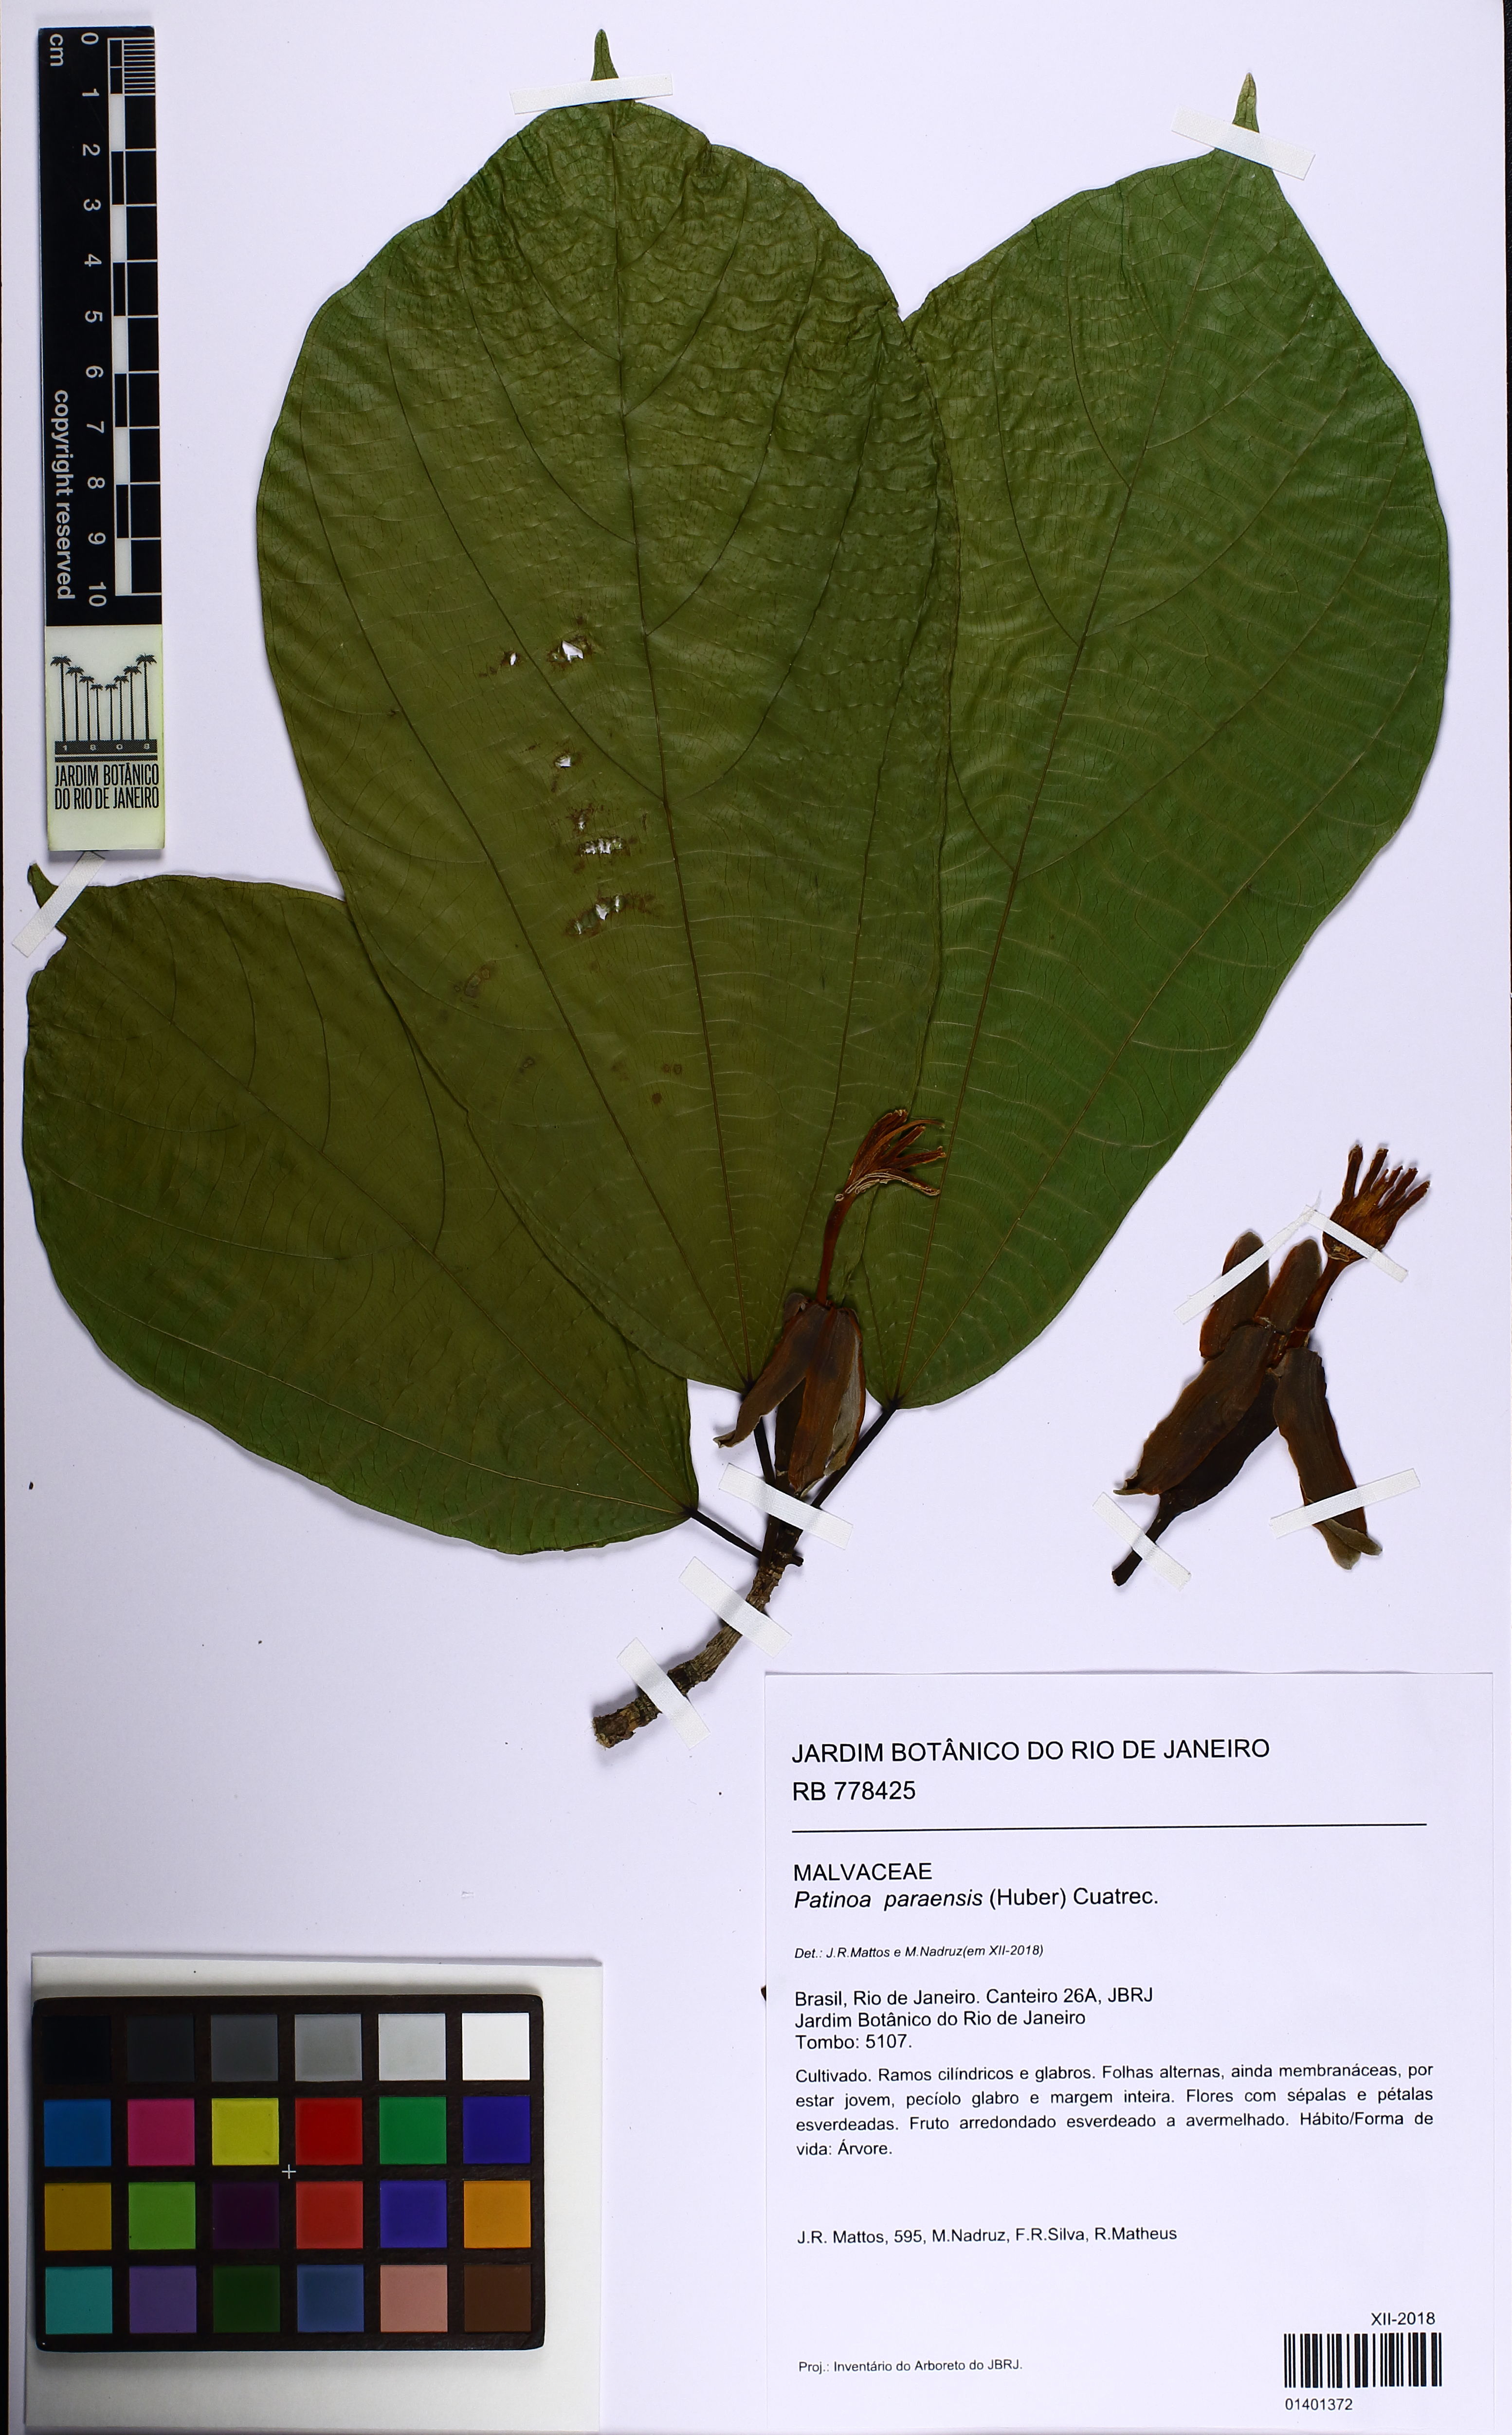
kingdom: Plantae
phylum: Tracheophyta
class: Magnoliopsida
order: Malvales
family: Malvaceae
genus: Patinoa
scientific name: Patinoa paraensis
